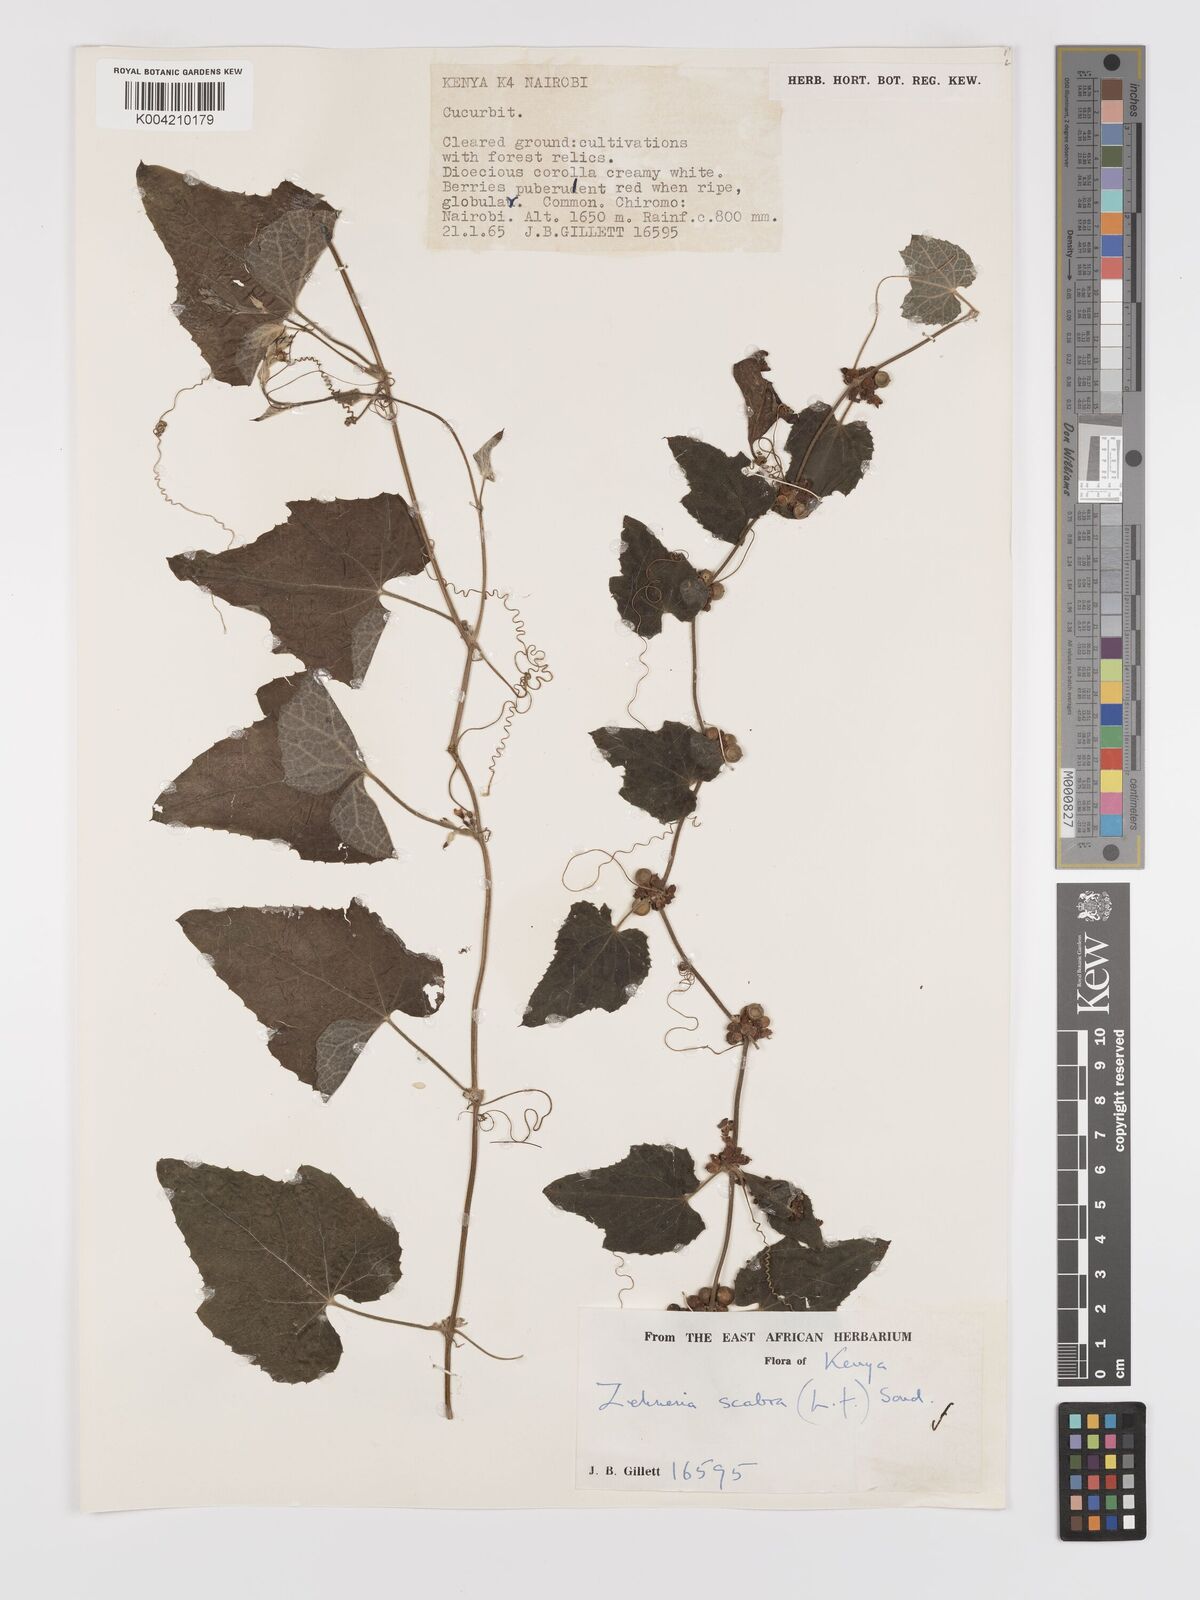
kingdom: Plantae
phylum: Tracheophyta
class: Magnoliopsida
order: Cucurbitales
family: Cucurbitaceae
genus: Zehneria
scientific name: Zehneria scabra
